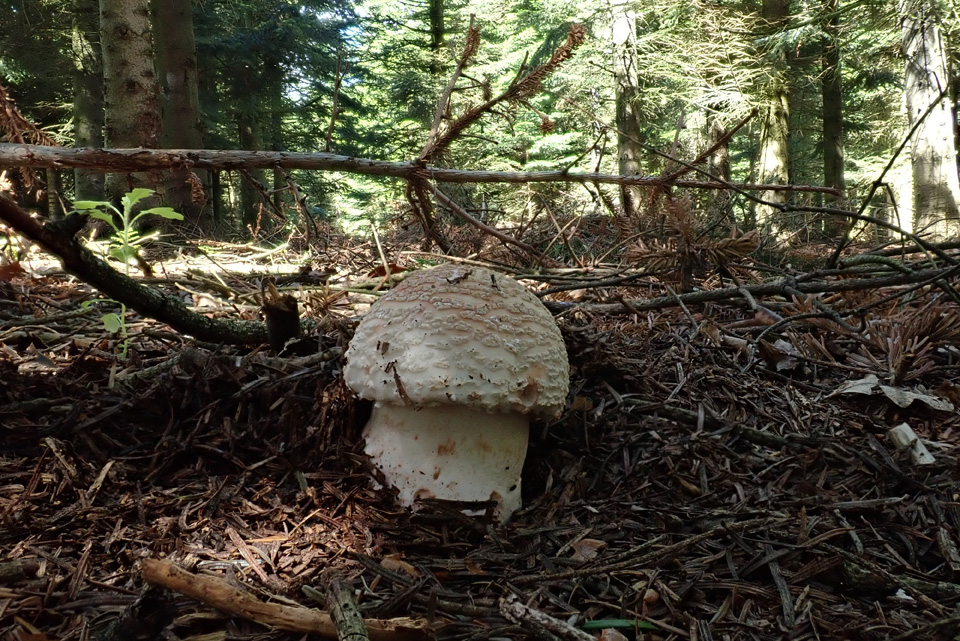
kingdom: Fungi
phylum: Basidiomycota
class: Agaricomycetes
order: Agaricales
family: Amanitaceae
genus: Amanita
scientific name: Amanita rubescens
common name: rødmende fluesvamp
